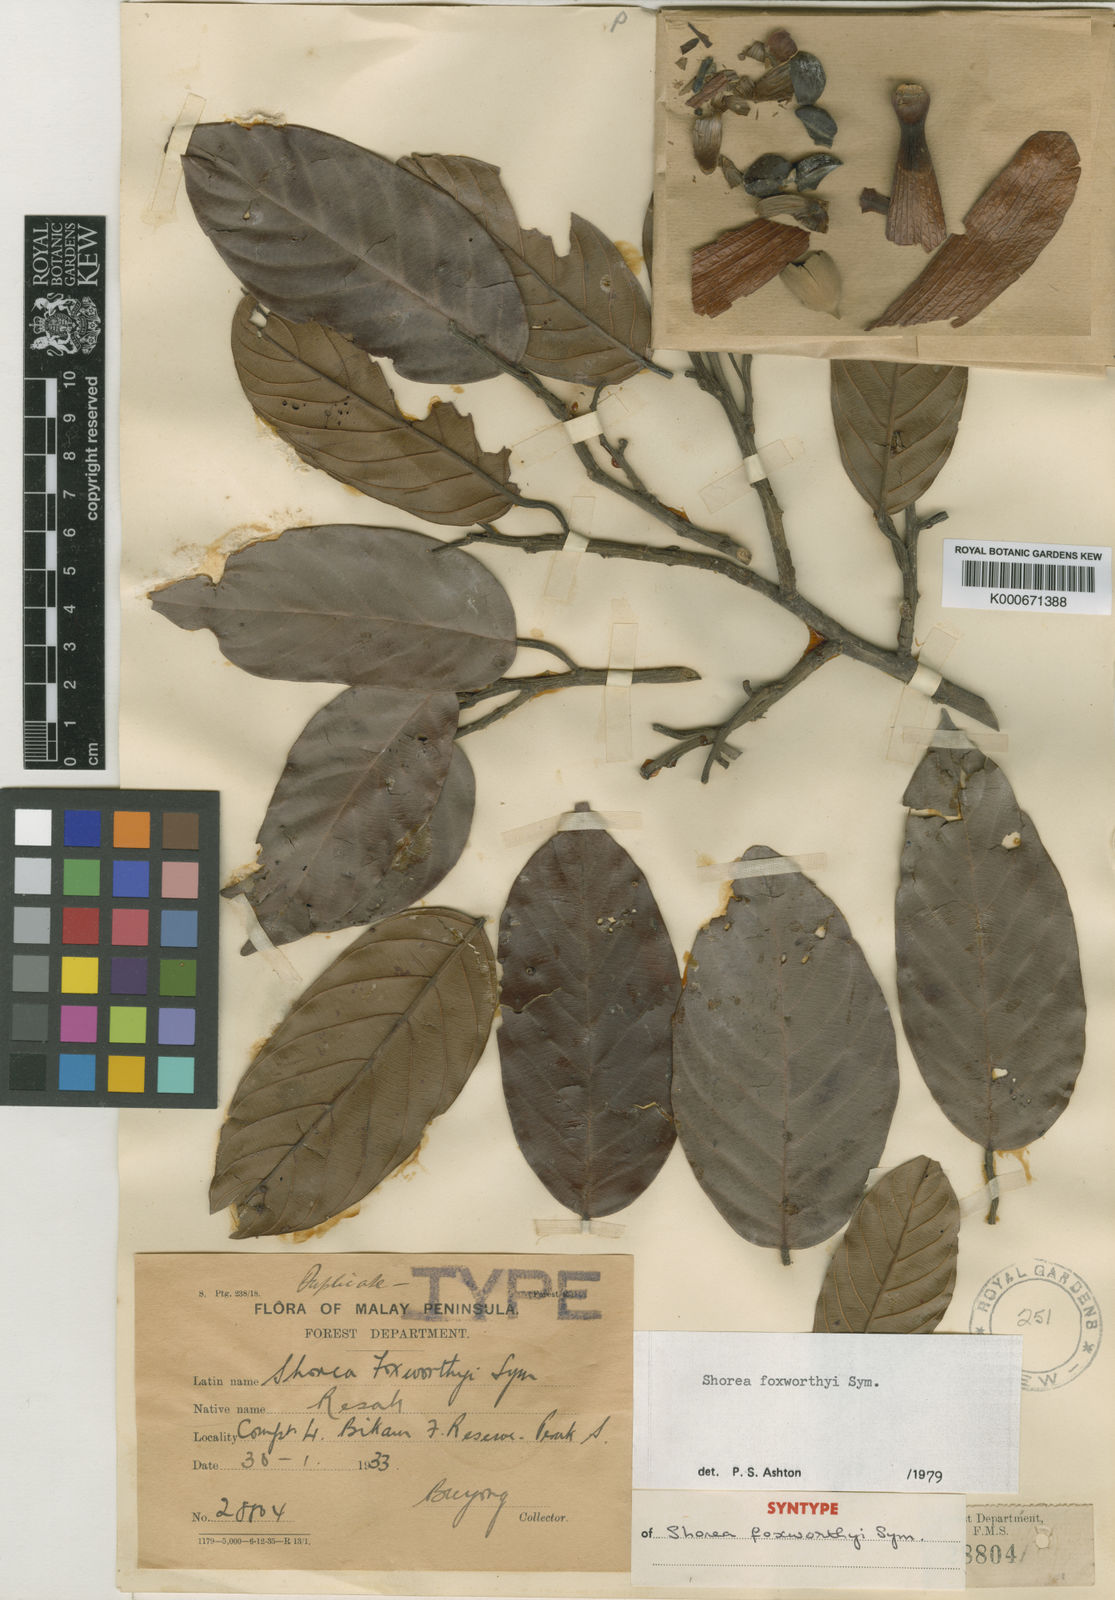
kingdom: Plantae
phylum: Tracheophyta
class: Magnoliopsida
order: Malvales
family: Dipterocarpaceae
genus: Shorea
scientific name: Shorea foxworthyi
